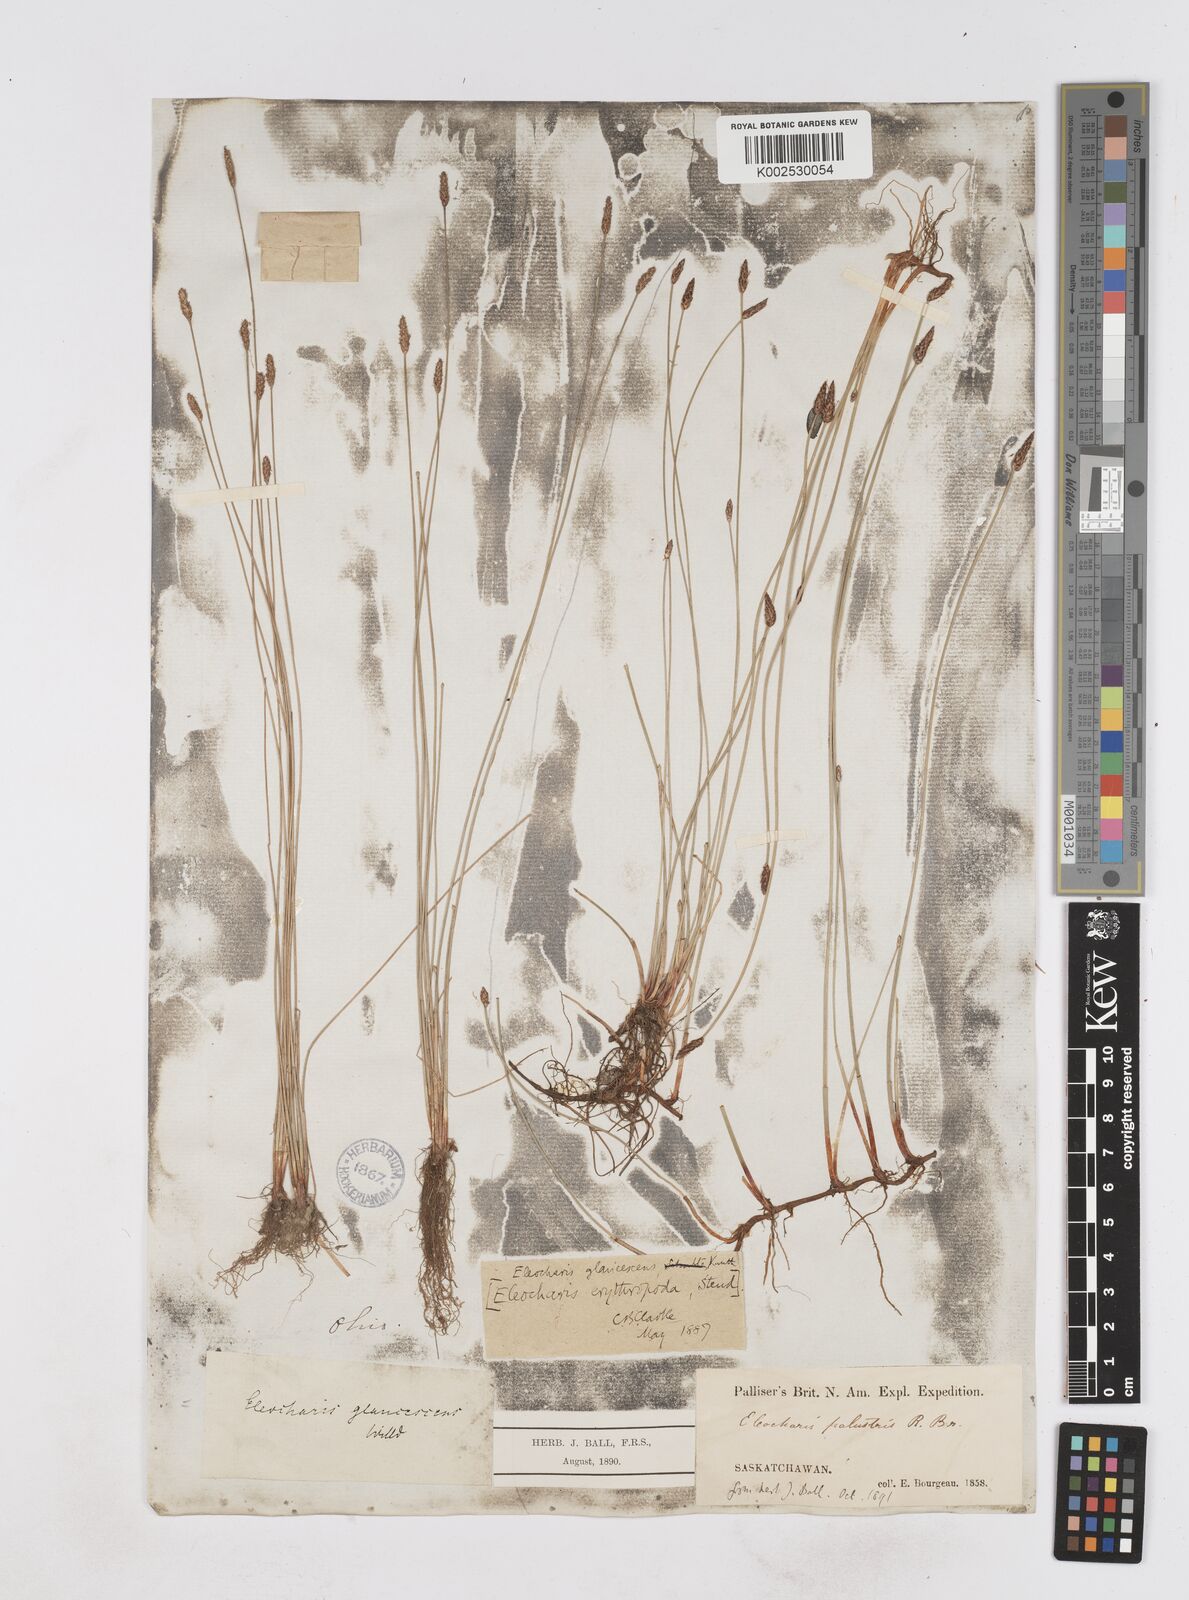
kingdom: Plantae
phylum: Tracheophyta
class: Liliopsida
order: Poales
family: Cyperaceae
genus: Eleocharis
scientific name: Eleocharis palustris
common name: Common spike-rush
